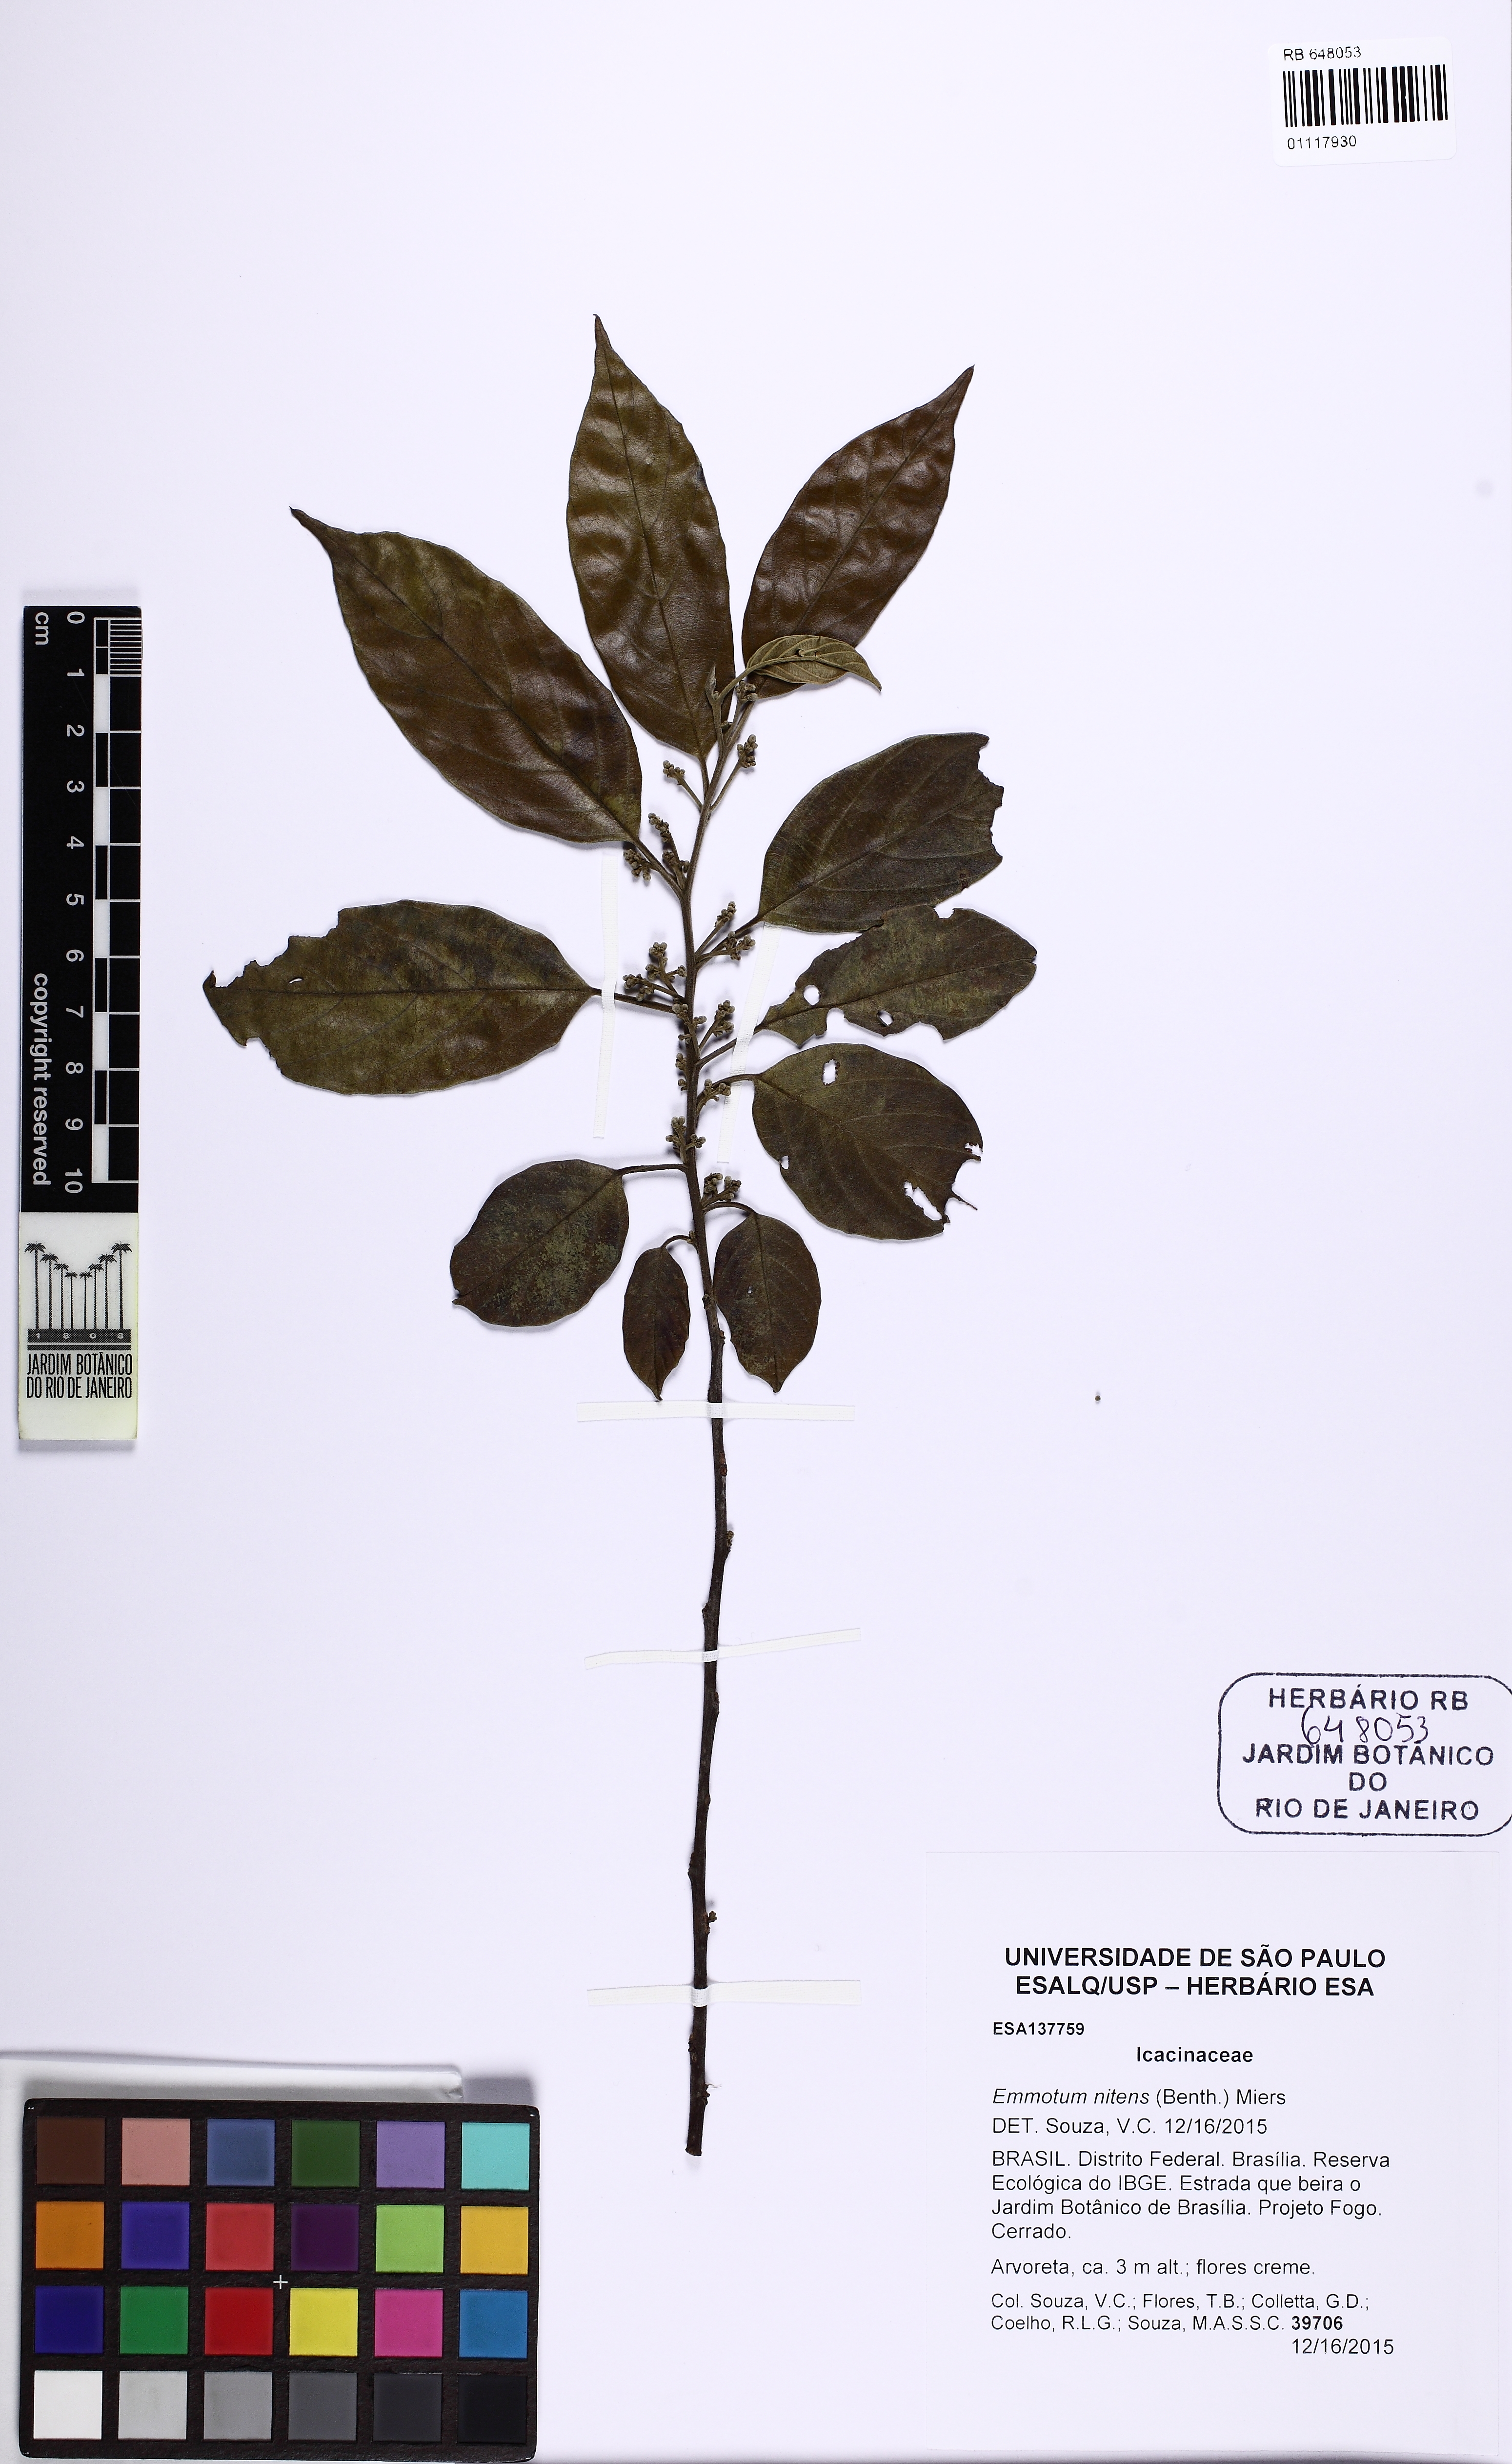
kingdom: Plantae
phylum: Tracheophyta
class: Magnoliopsida
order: Metteniusales
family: Metteniusaceae
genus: Emmotum
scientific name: Emmotum nitens
